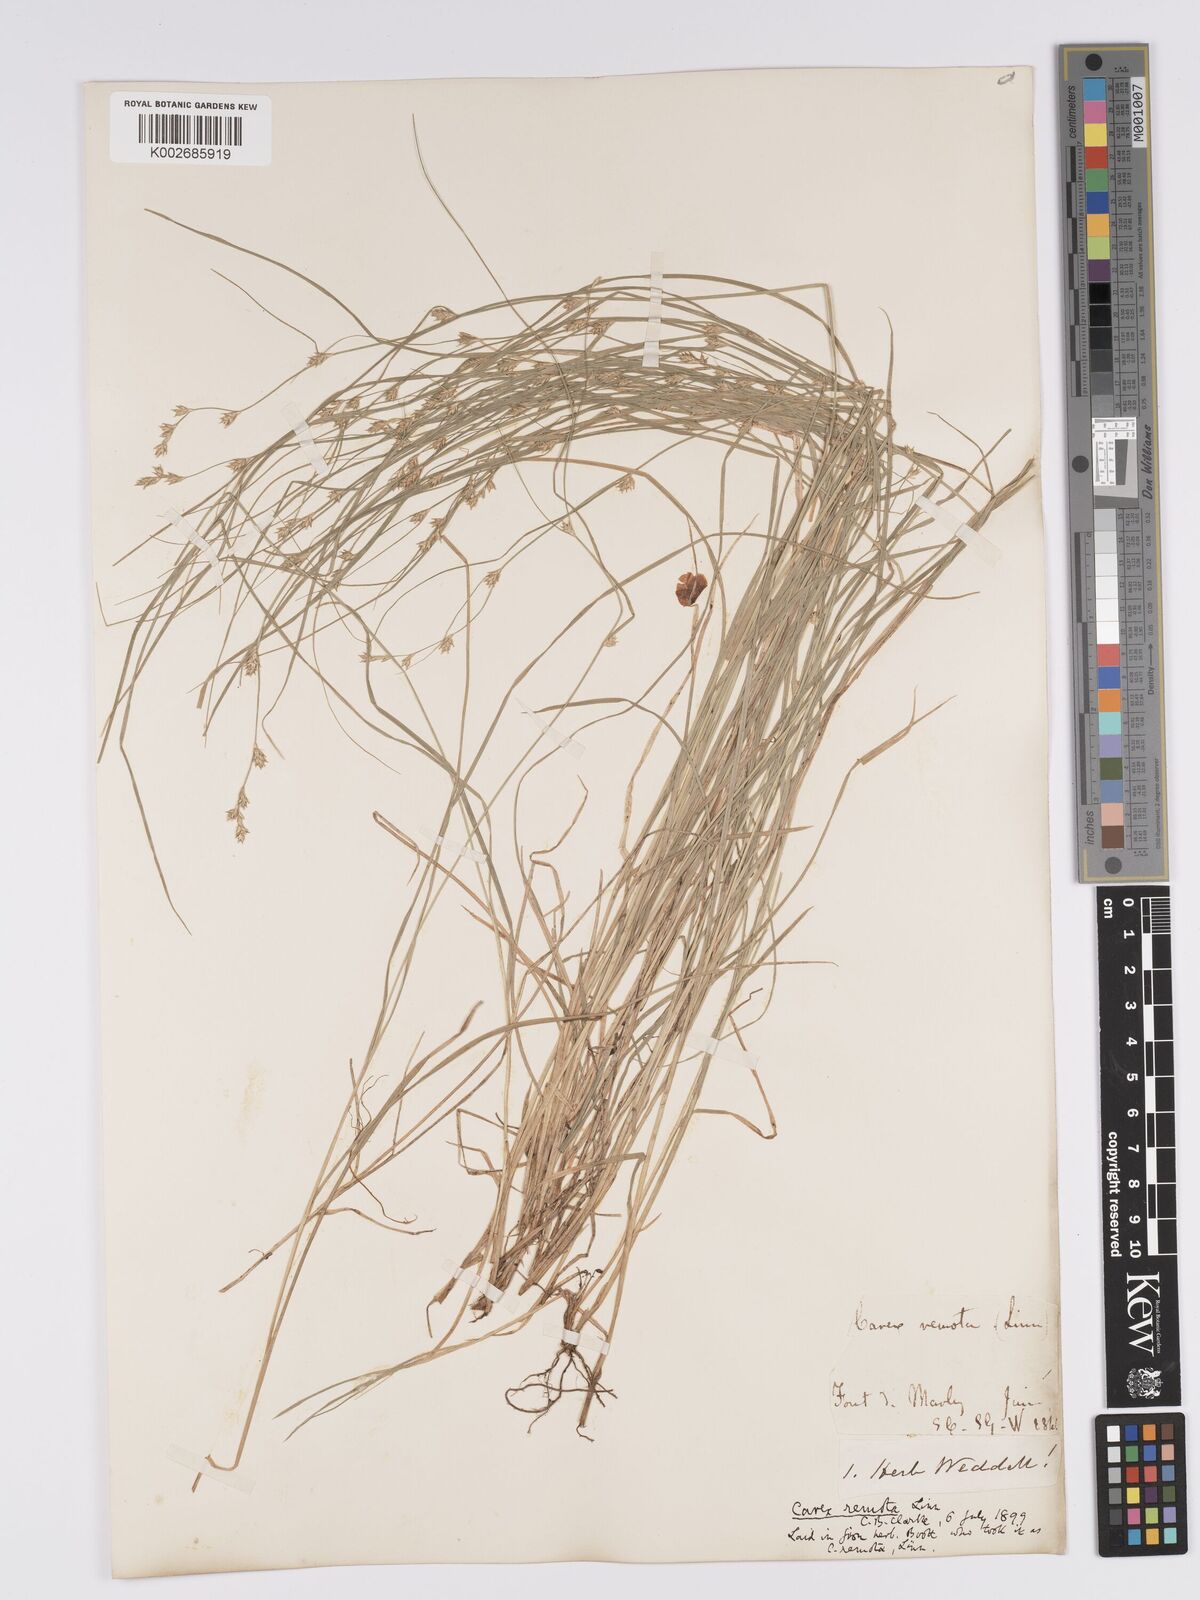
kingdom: Plantae
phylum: Tracheophyta
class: Liliopsida
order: Poales
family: Cyperaceae
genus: Carex
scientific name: Carex remota
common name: Remote sedge
